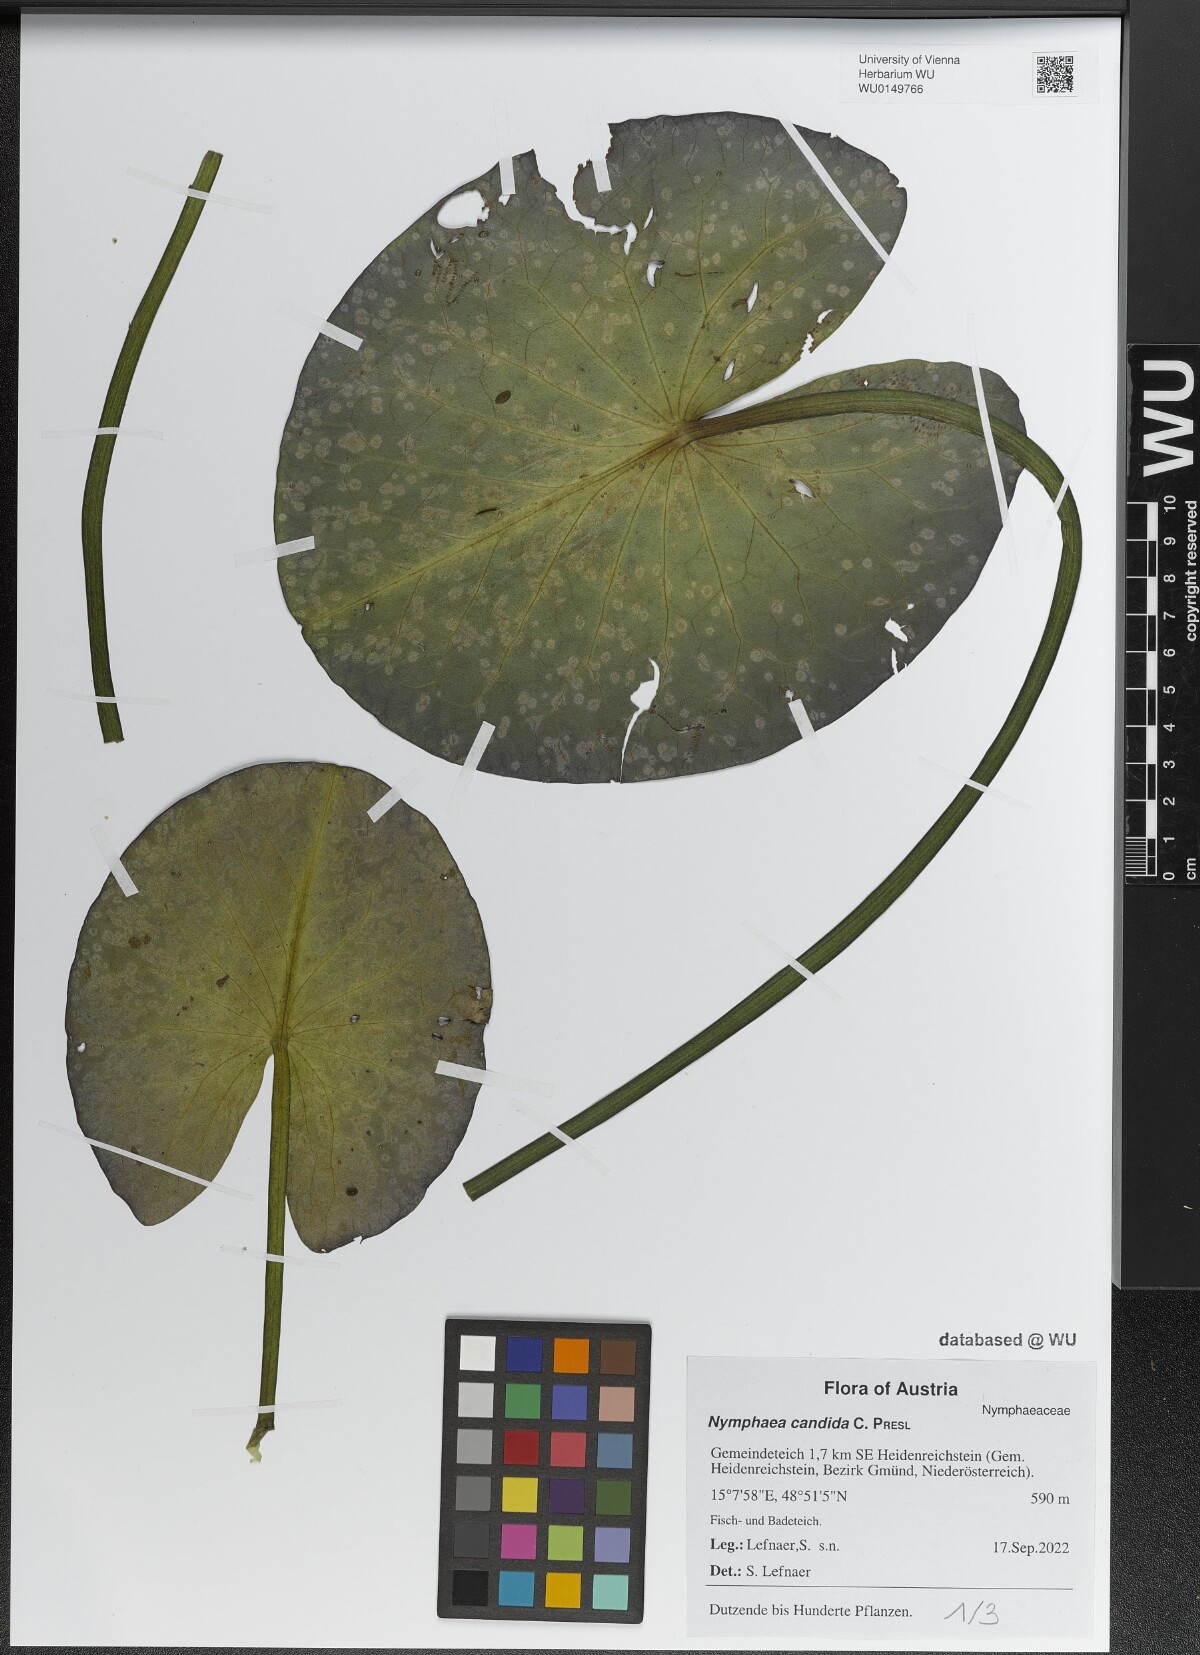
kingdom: Plantae
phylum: Tracheophyta
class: Magnoliopsida
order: Nymphaeales
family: Nymphaeaceae
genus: Nymphaea
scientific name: Nymphaea candida
